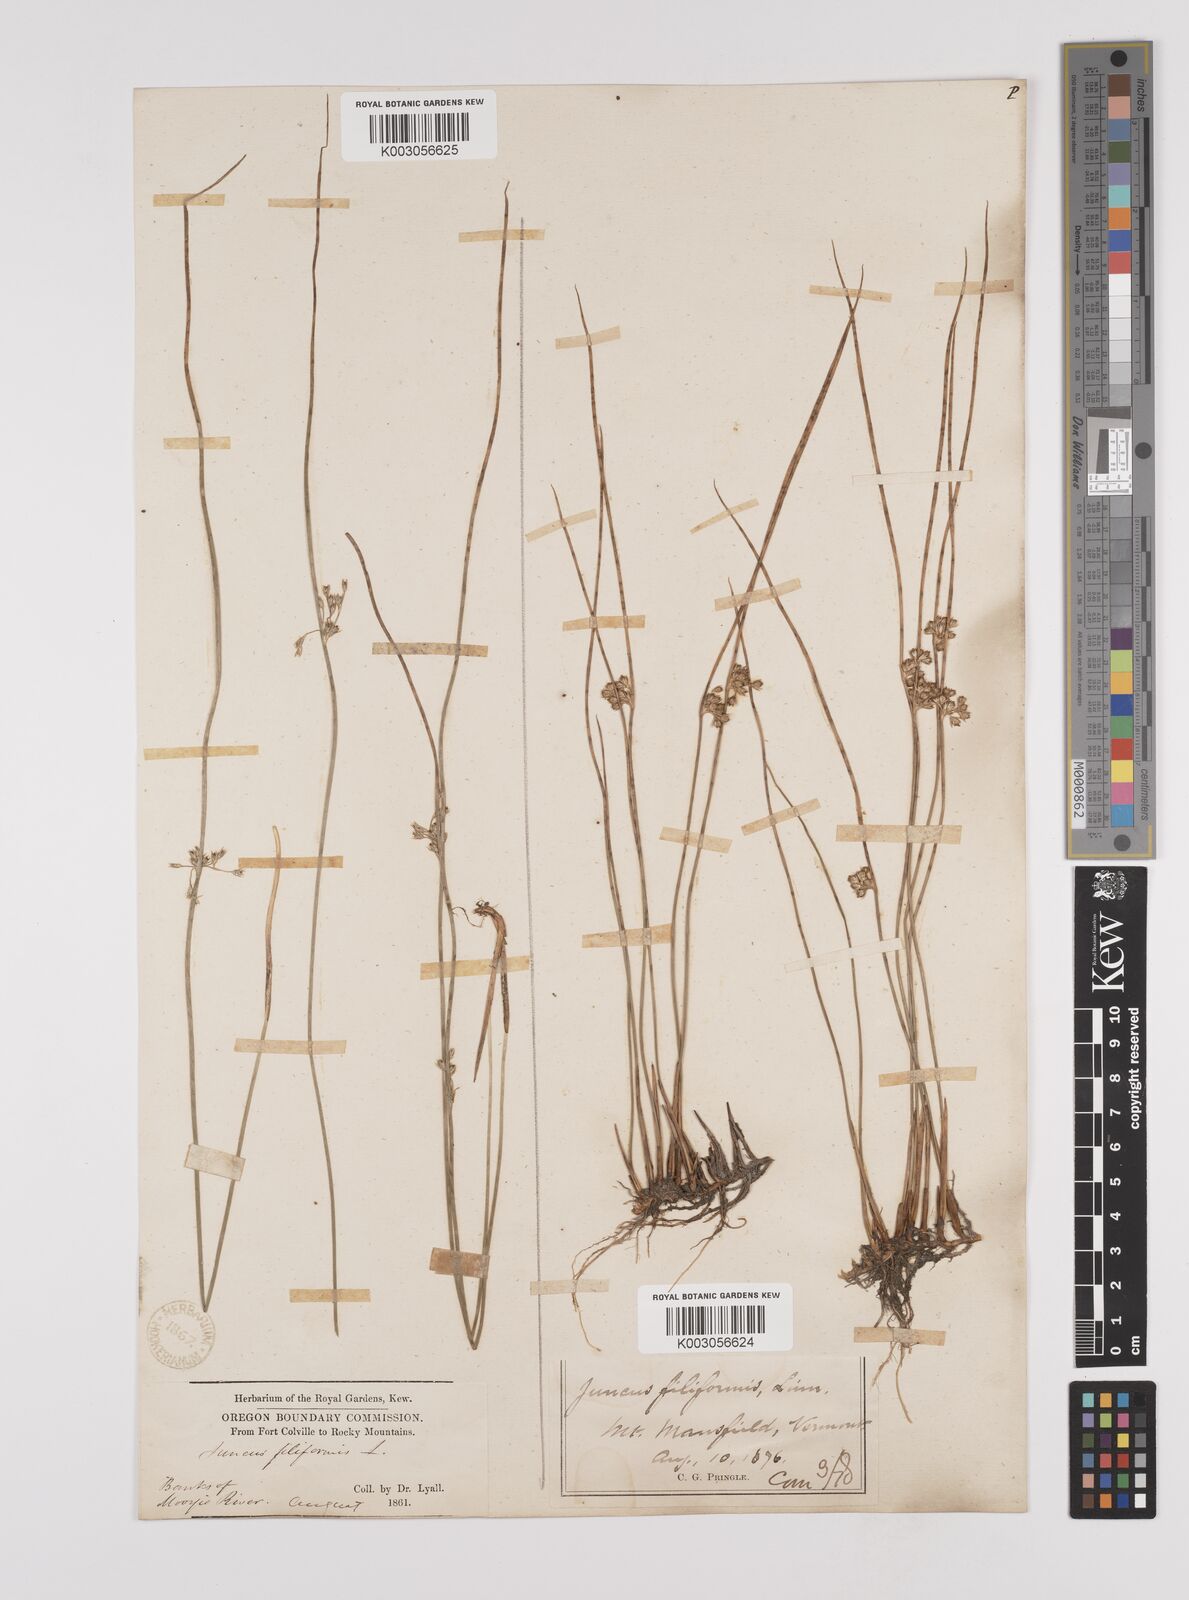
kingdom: Plantae
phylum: Tracheophyta
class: Liliopsida
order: Poales
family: Juncaceae
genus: Juncus
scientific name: Juncus filiformis
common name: Thread rush
